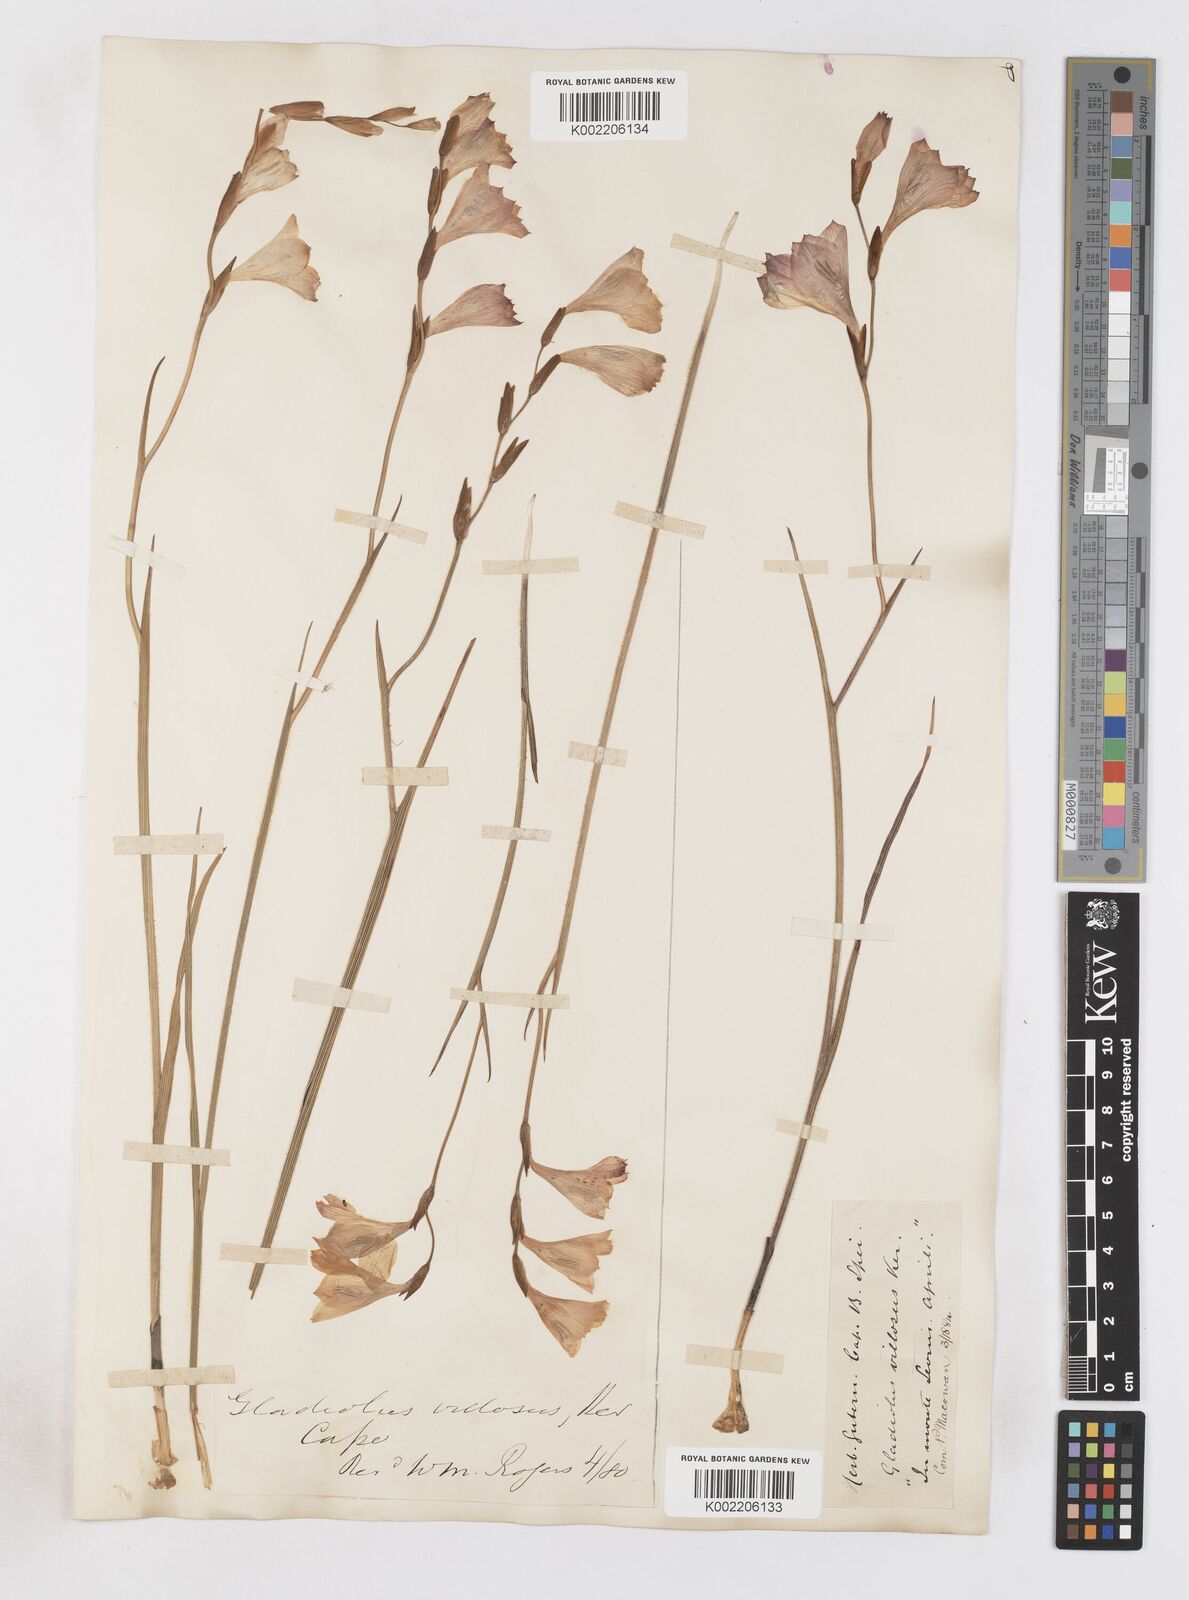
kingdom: Plantae
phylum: Tracheophyta
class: Liliopsida
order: Asparagales
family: Iridaceae
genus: Gladiolus
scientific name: Gladiolus hirsutus
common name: Small pink afrikaner
